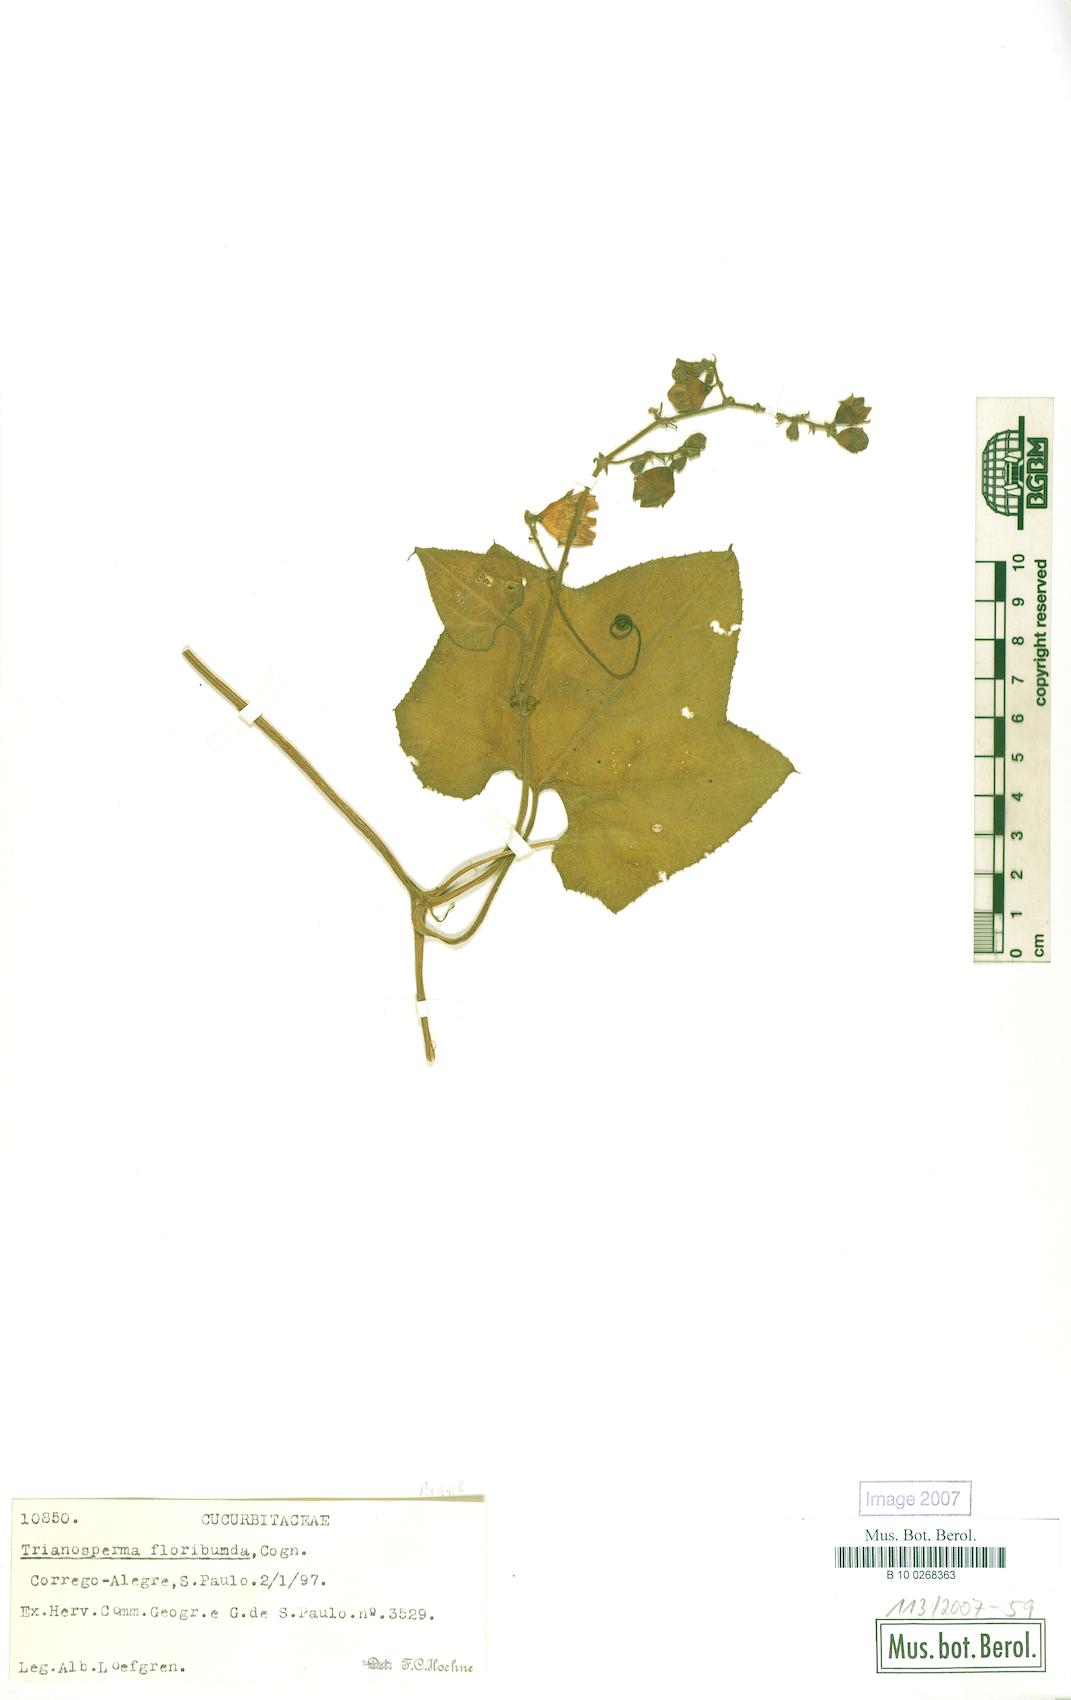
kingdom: Plantae
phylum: Tracheophyta
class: Magnoliopsida
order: Cucurbitales
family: Cucurbitaceae
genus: Cayaponia
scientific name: Cayaponia floribunda
